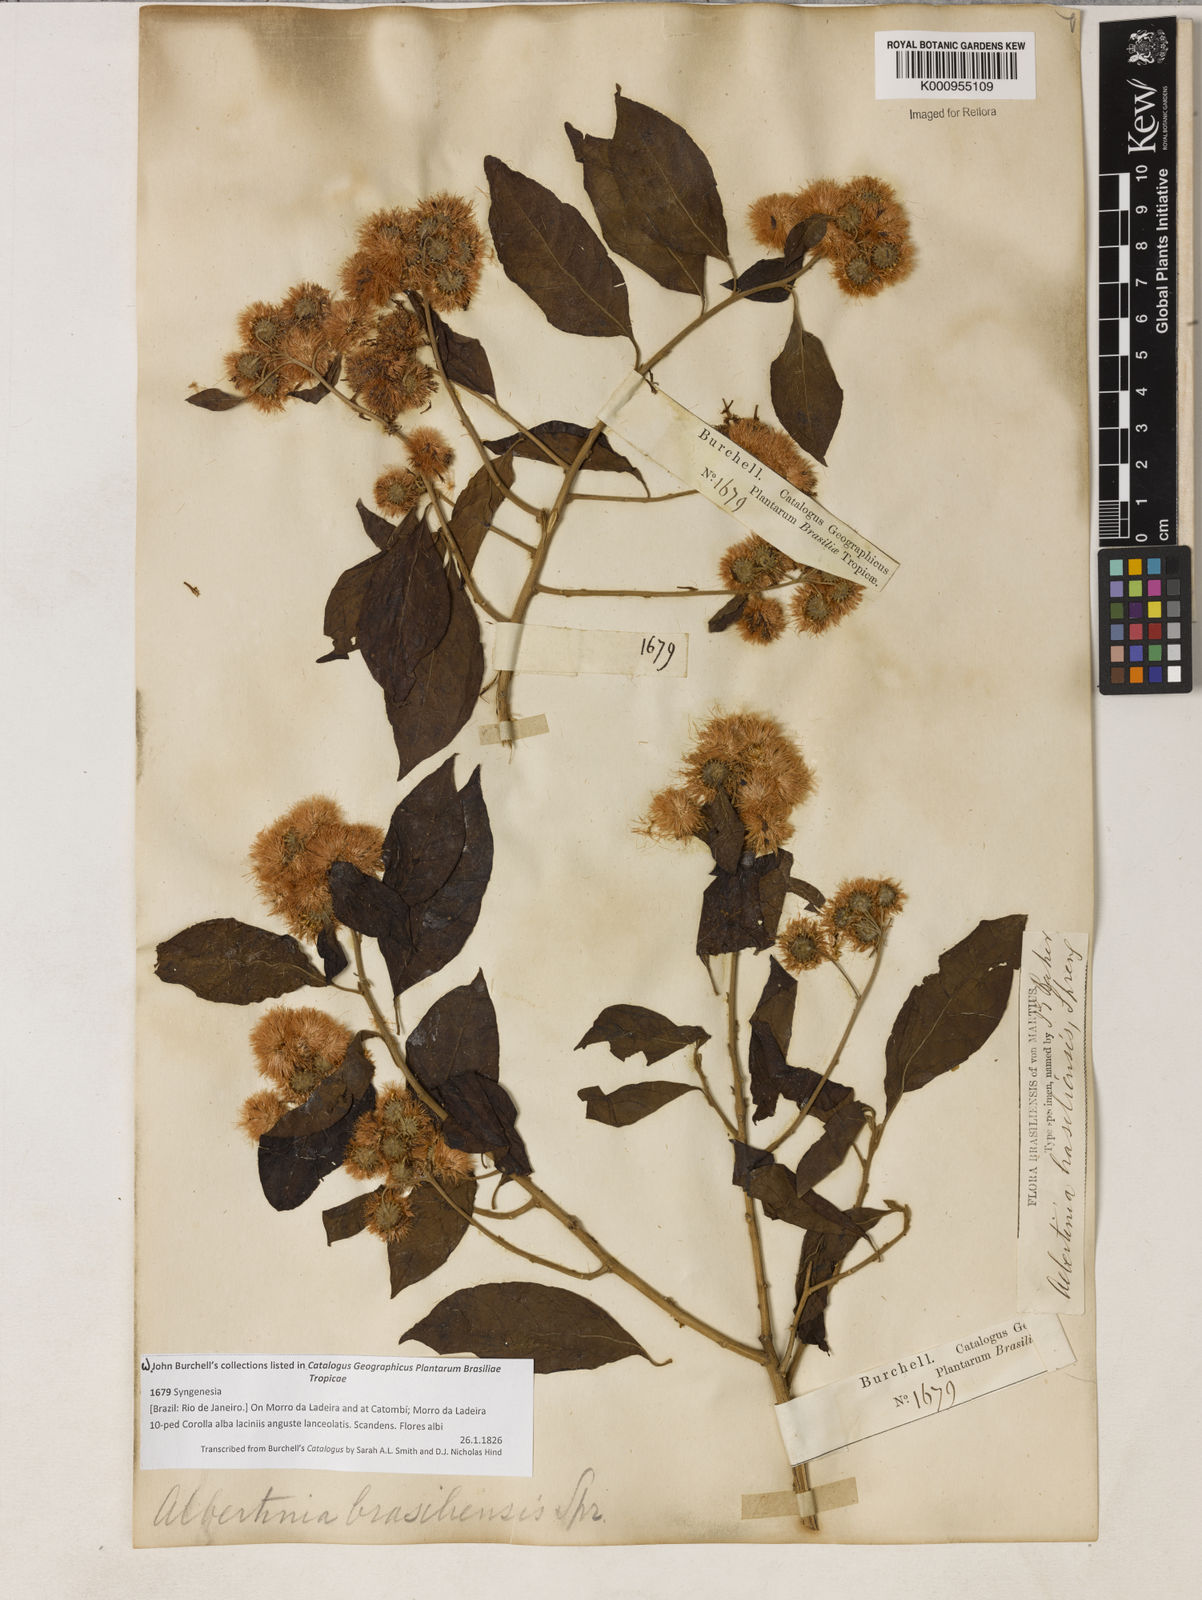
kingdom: Plantae
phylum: Tracheophyta
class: Magnoliopsida
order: Asterales
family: Asteraceae
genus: Albertinia
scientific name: Albertinia brasiliensis
